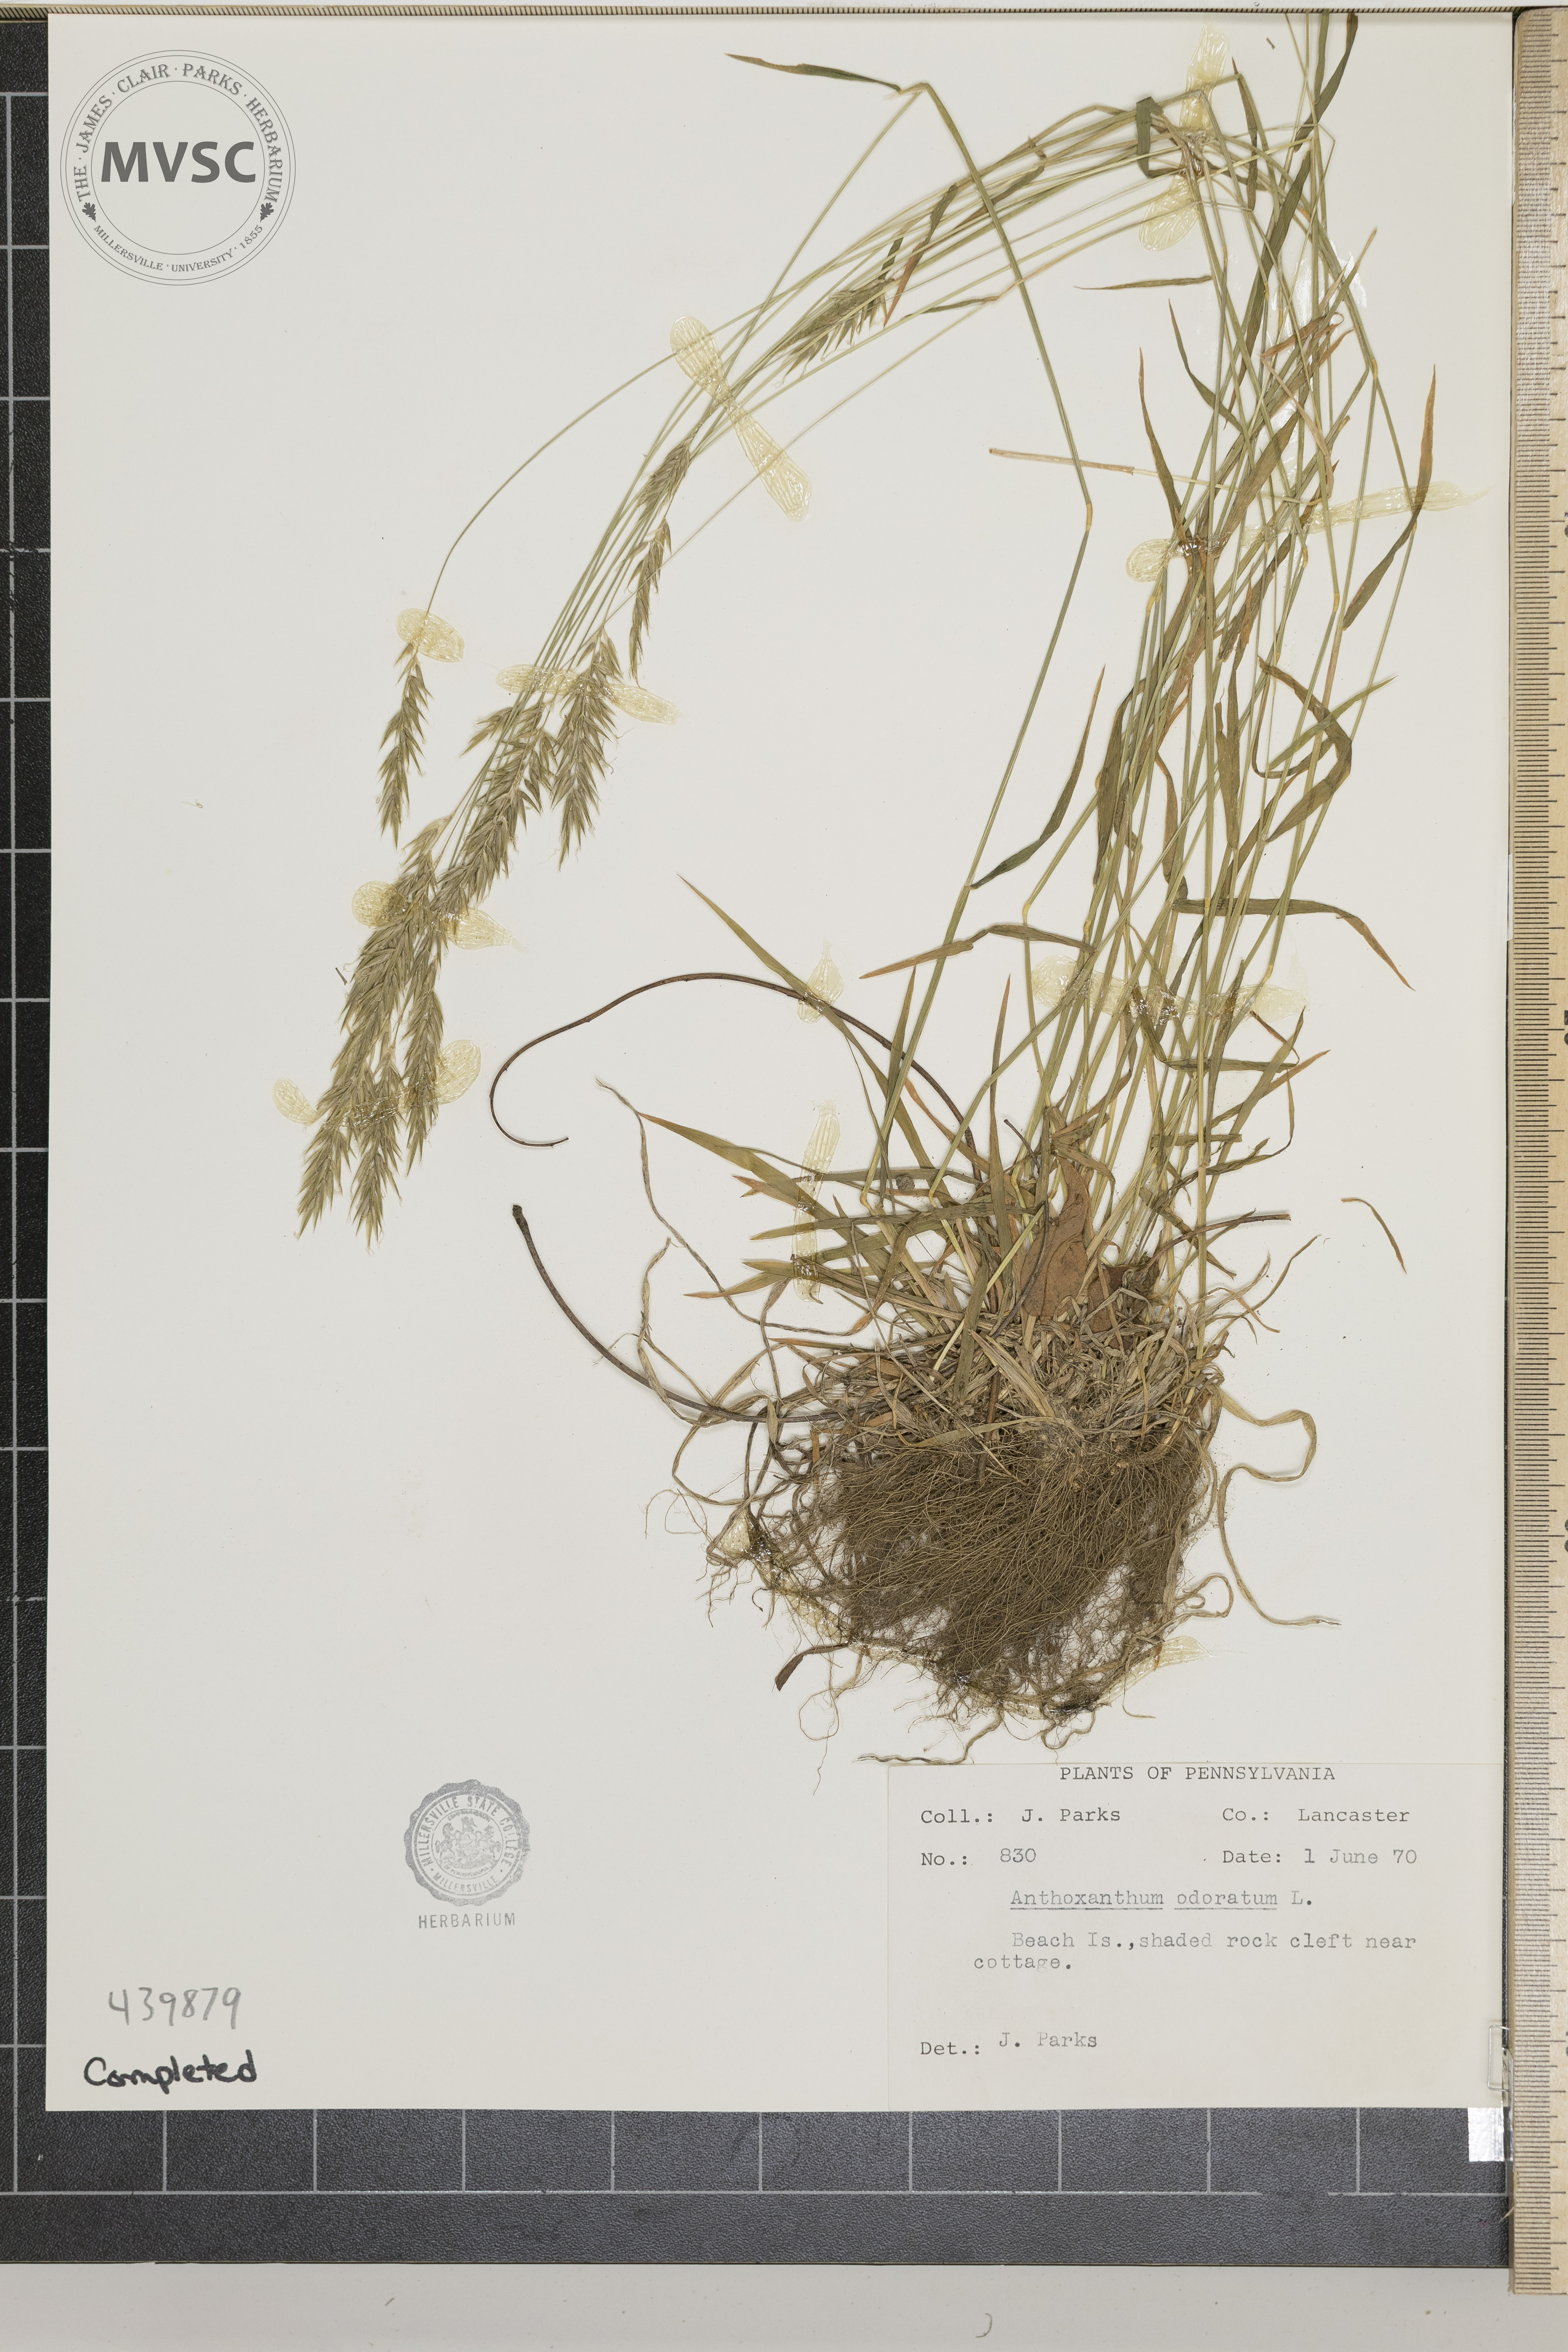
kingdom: Plantae
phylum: Tracheophyta
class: Liliopsida
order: Poales
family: Poaceae
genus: Anthoxanthum
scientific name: Anthoxanthum odoratum
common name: Sweet vernalgrass
